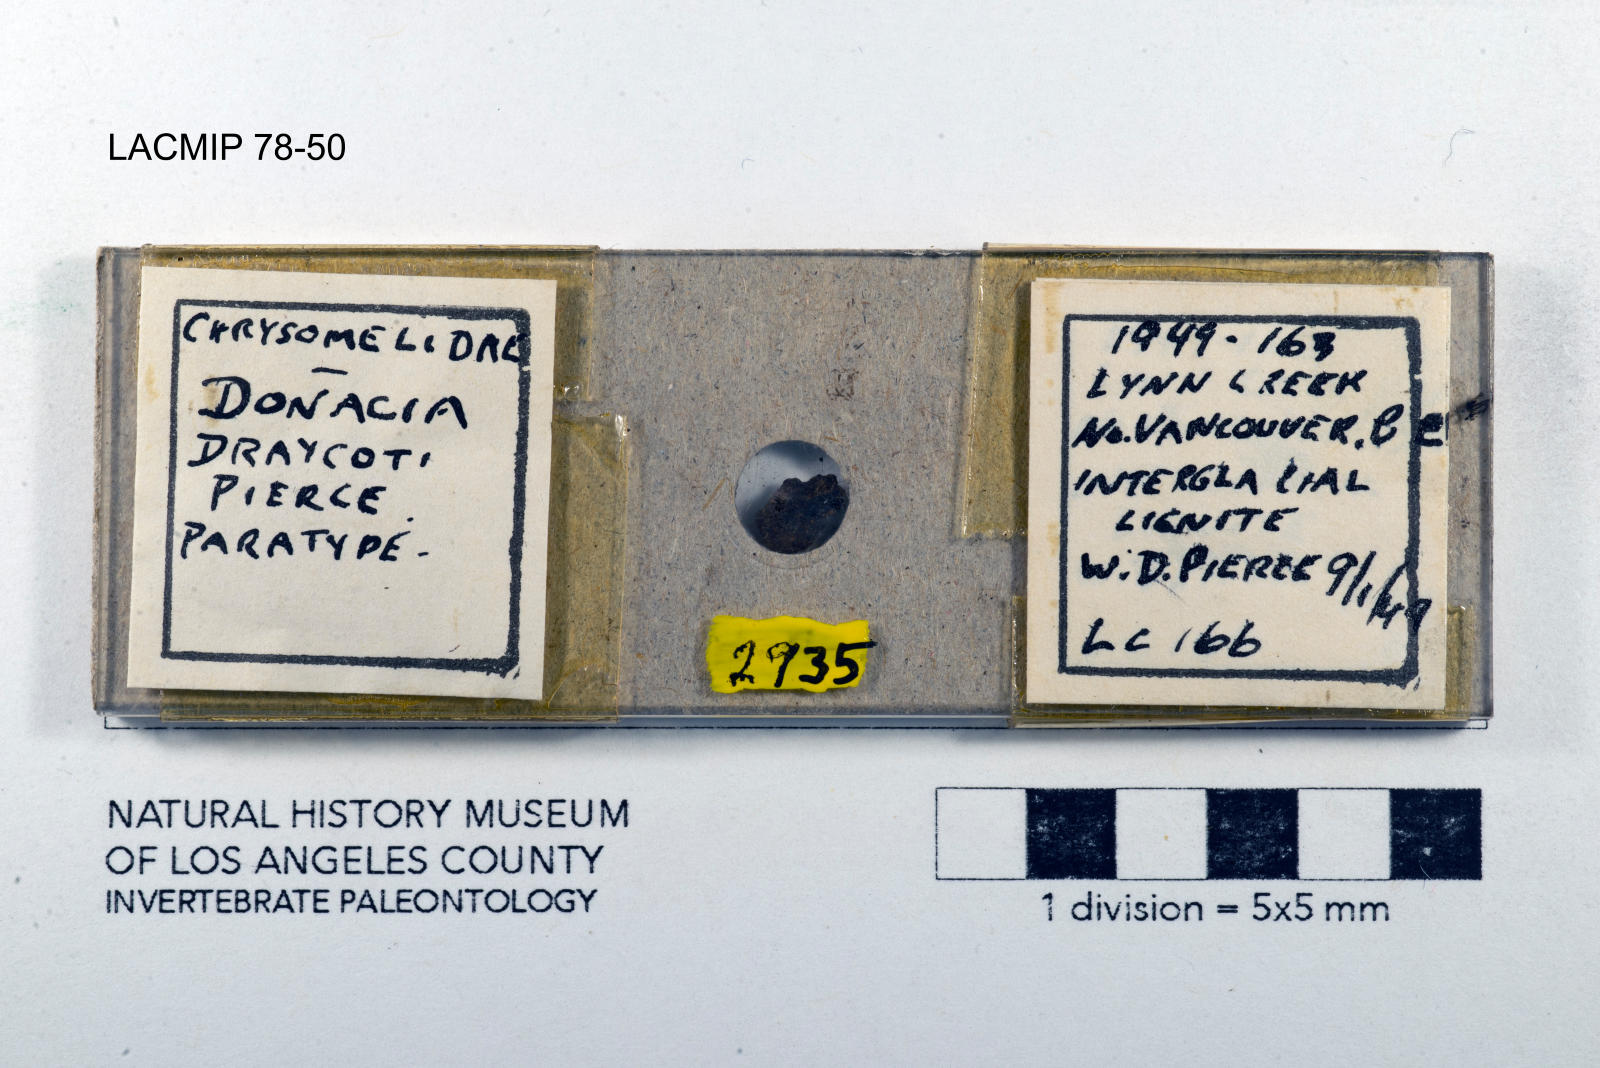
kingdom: Animalia
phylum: Arthropoda
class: Insecta
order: Coleoptera
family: Chrysomelidae
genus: Donacia
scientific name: Donacia draycoti
